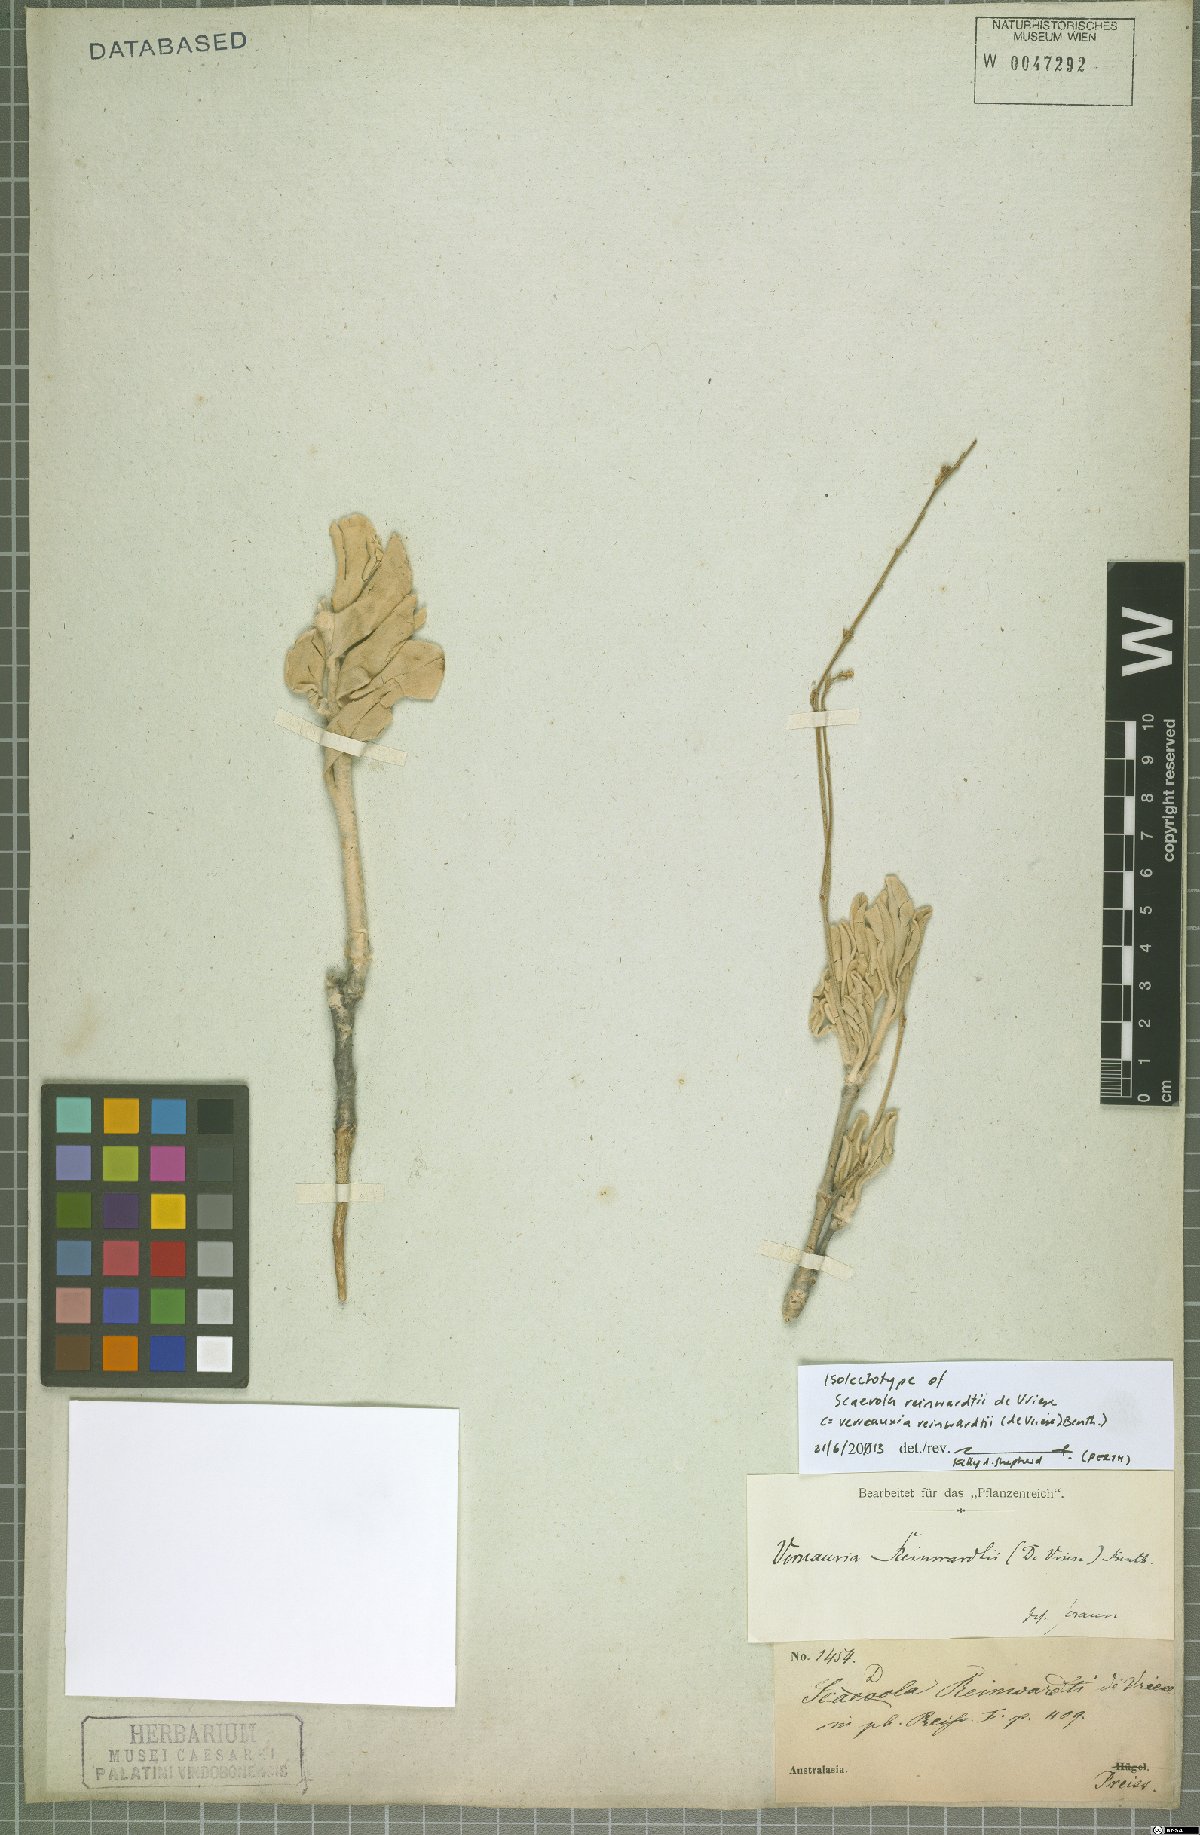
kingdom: Plantae
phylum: Tracheophyta
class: Magnoliopsida
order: Asterales
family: Goodeniaceae
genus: Goodenia
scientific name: Goodenia reinwardtii
